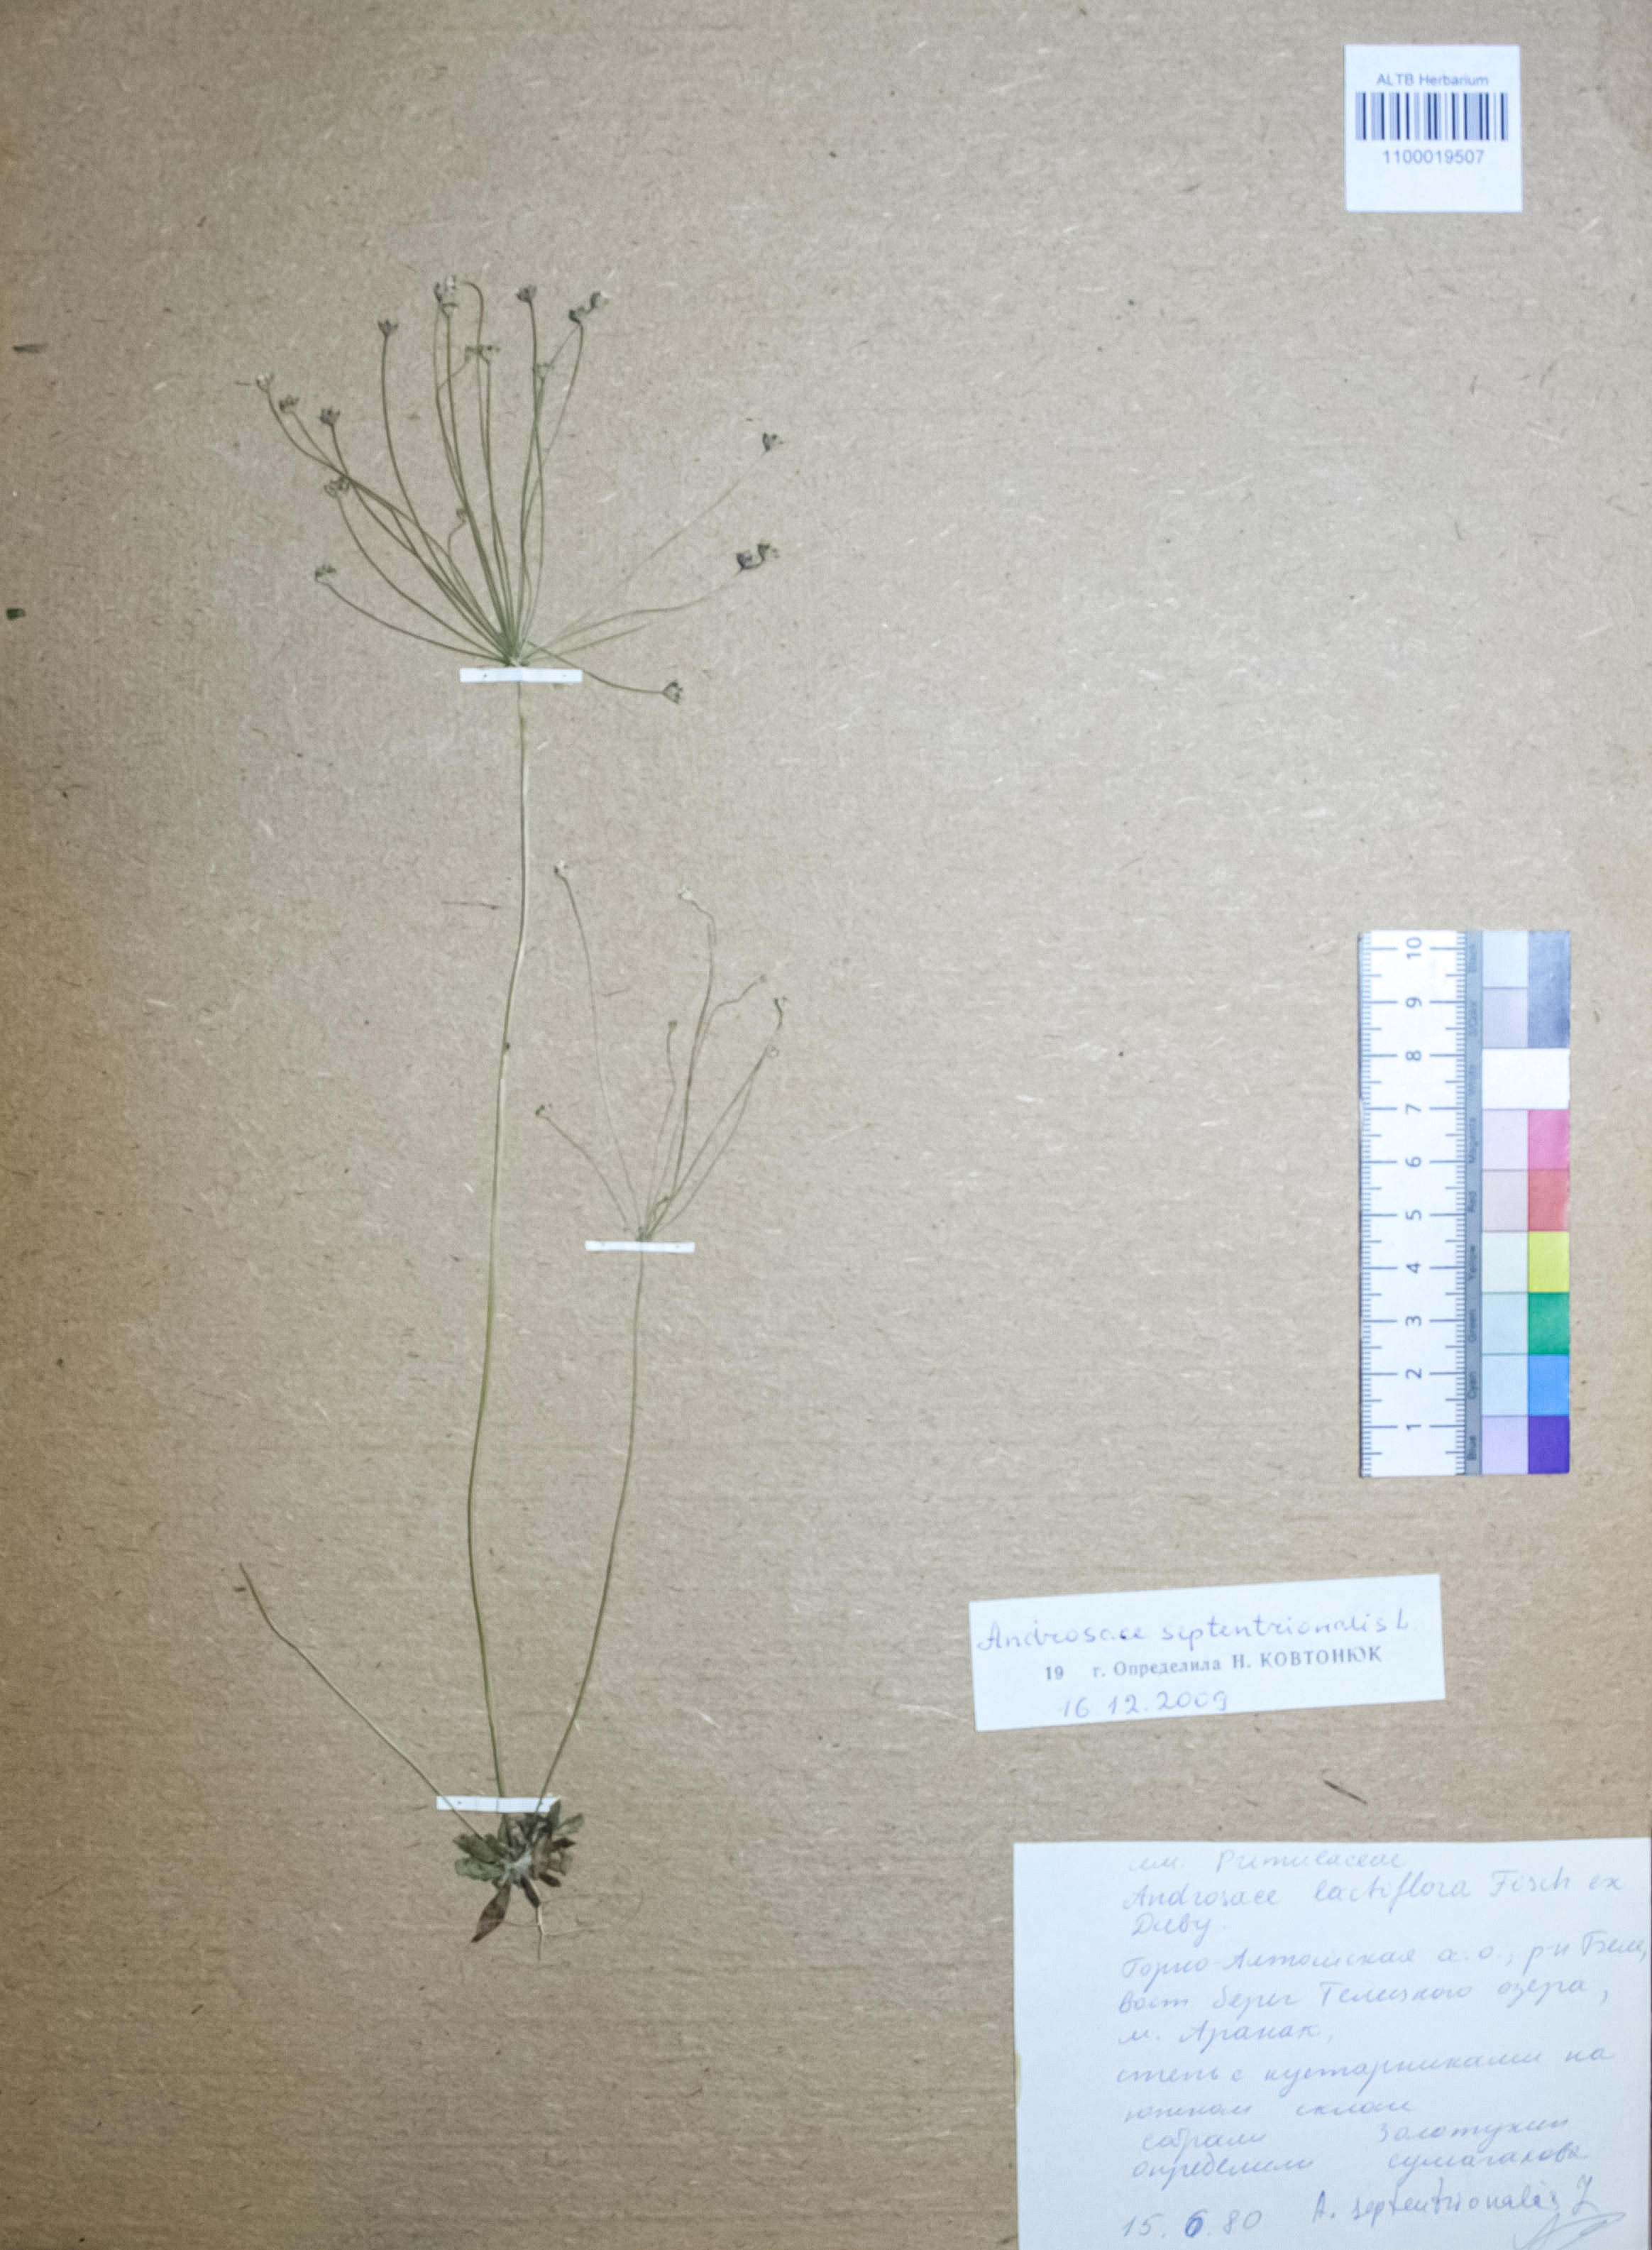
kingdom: Plantae
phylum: Tracheophyta
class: Magnoliopsida
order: Ericales
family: Primulaceae
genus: Androsace
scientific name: Androsace septentrionalis
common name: Hairy northern fairy-candelabra
